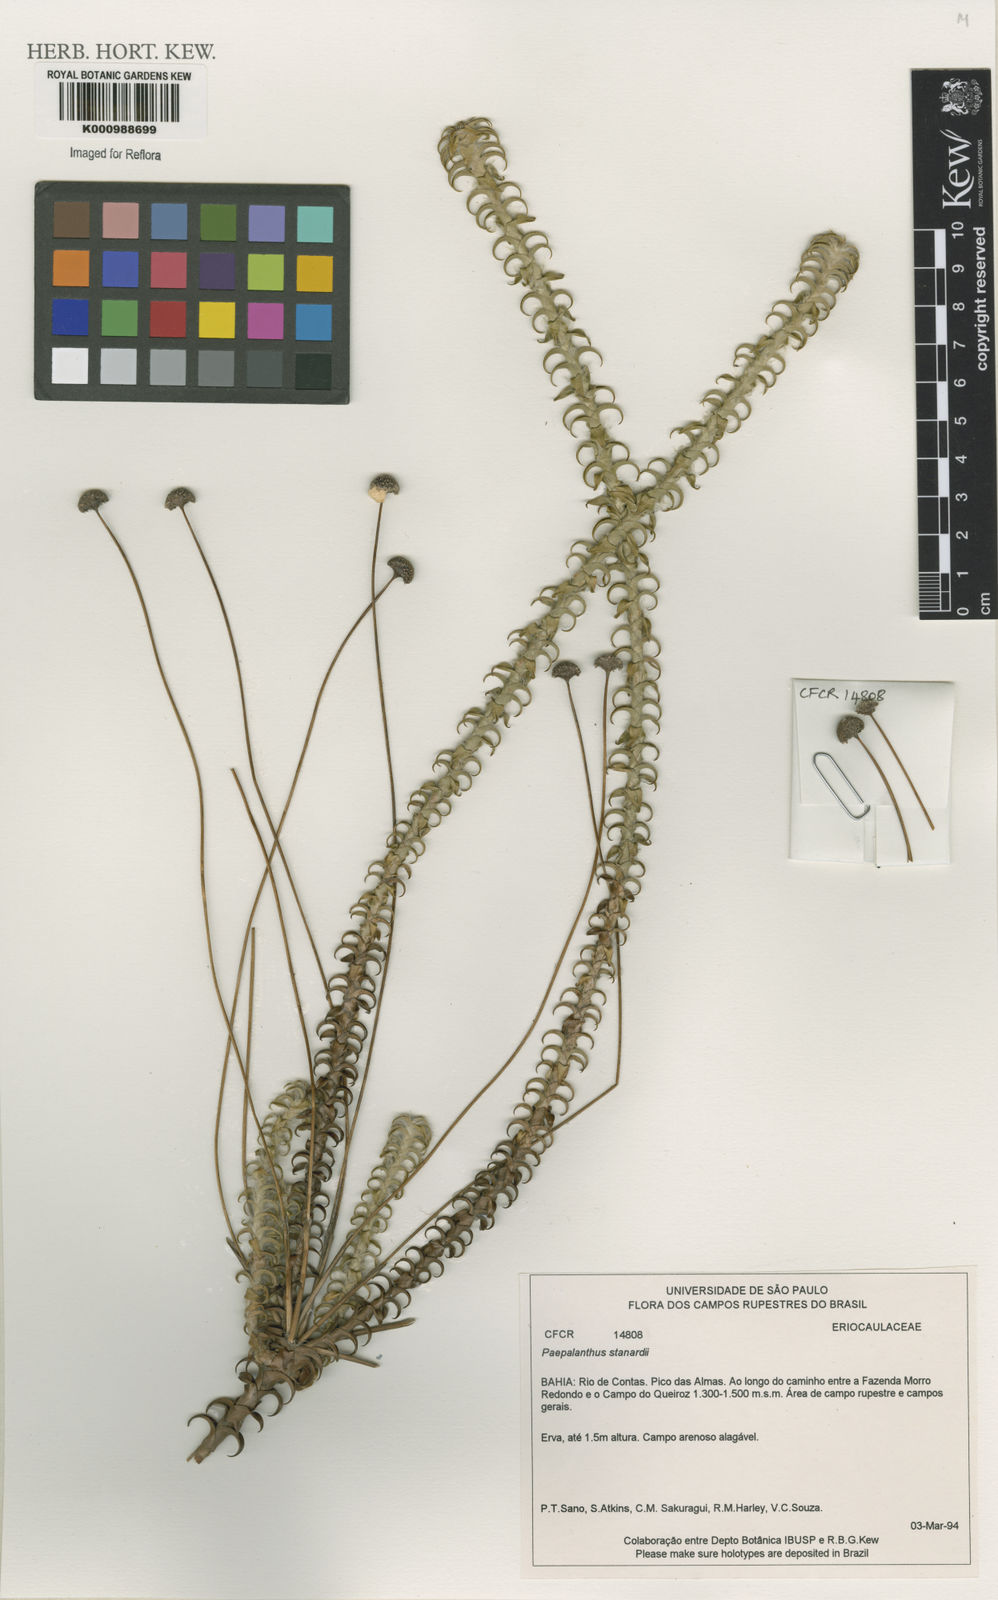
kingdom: Plantae
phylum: Tracheophyta
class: Liliopsida
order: Poales
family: Eriocaulaceae
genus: Paepalanthus
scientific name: Paepalanthus stannardii
